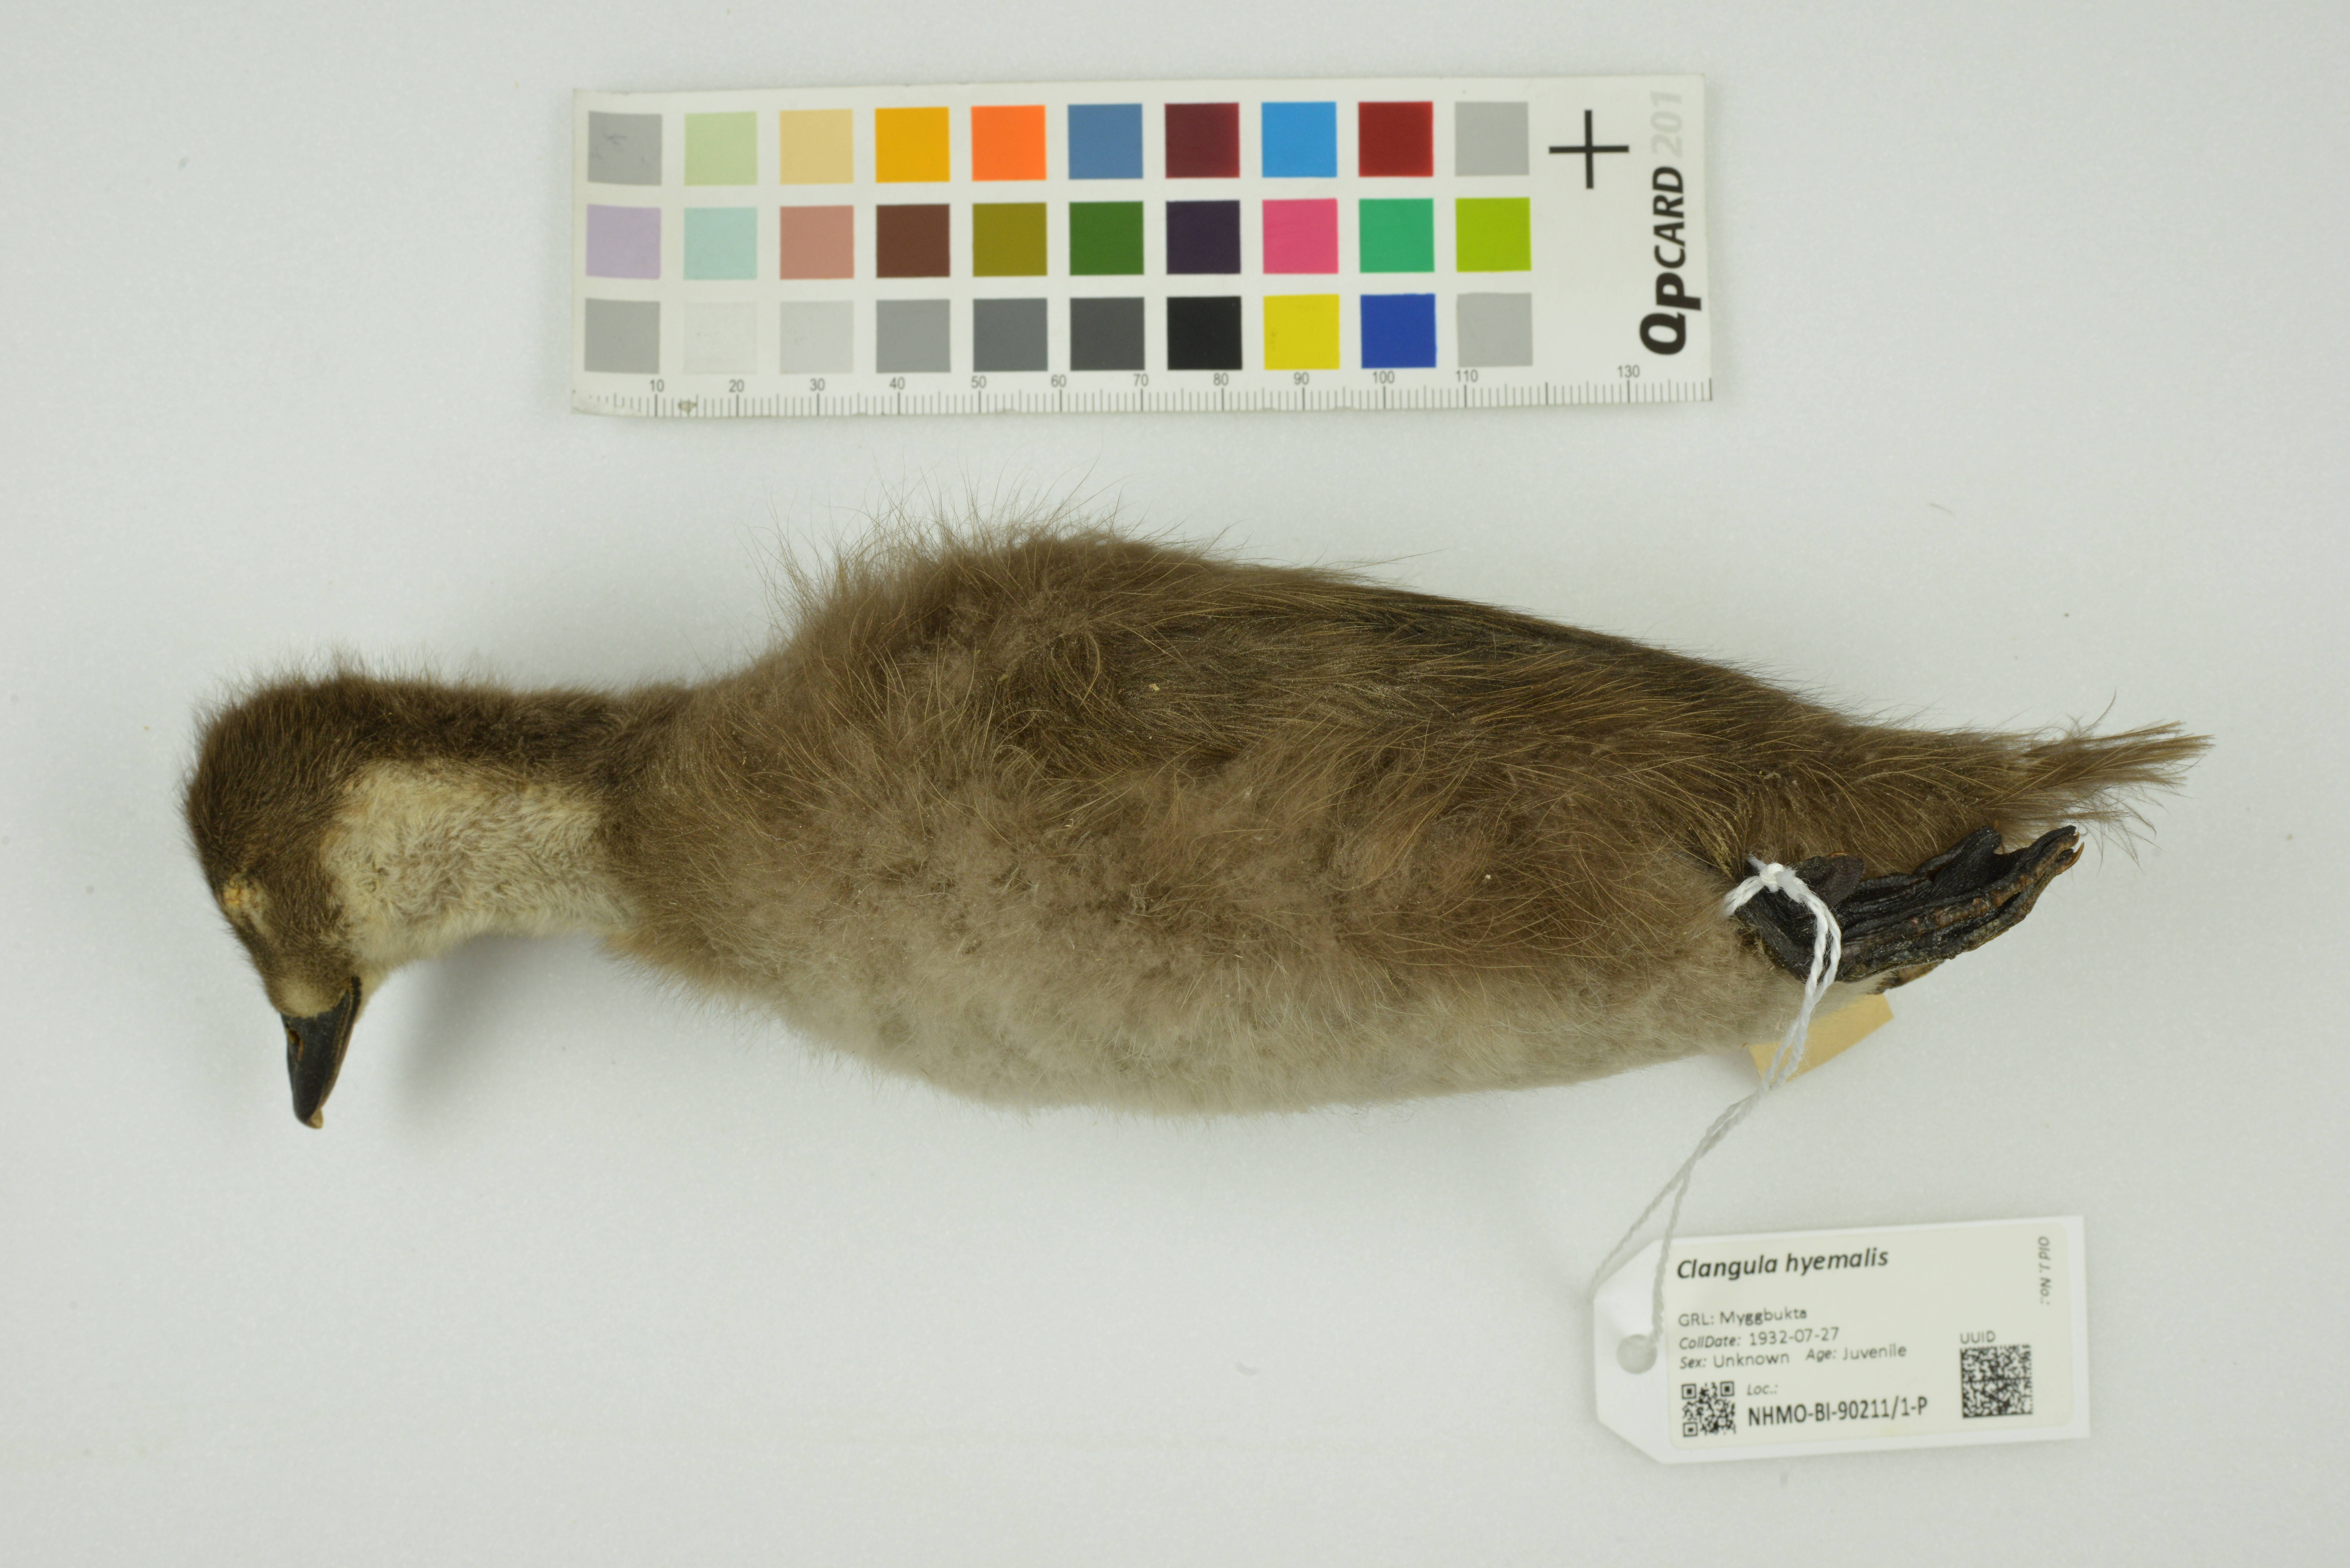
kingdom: Animalia
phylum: Chordata
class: Aves
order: Anseriformes
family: Anatidae
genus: Clangula
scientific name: Clangula hyemalis
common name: Long-tailed duck
